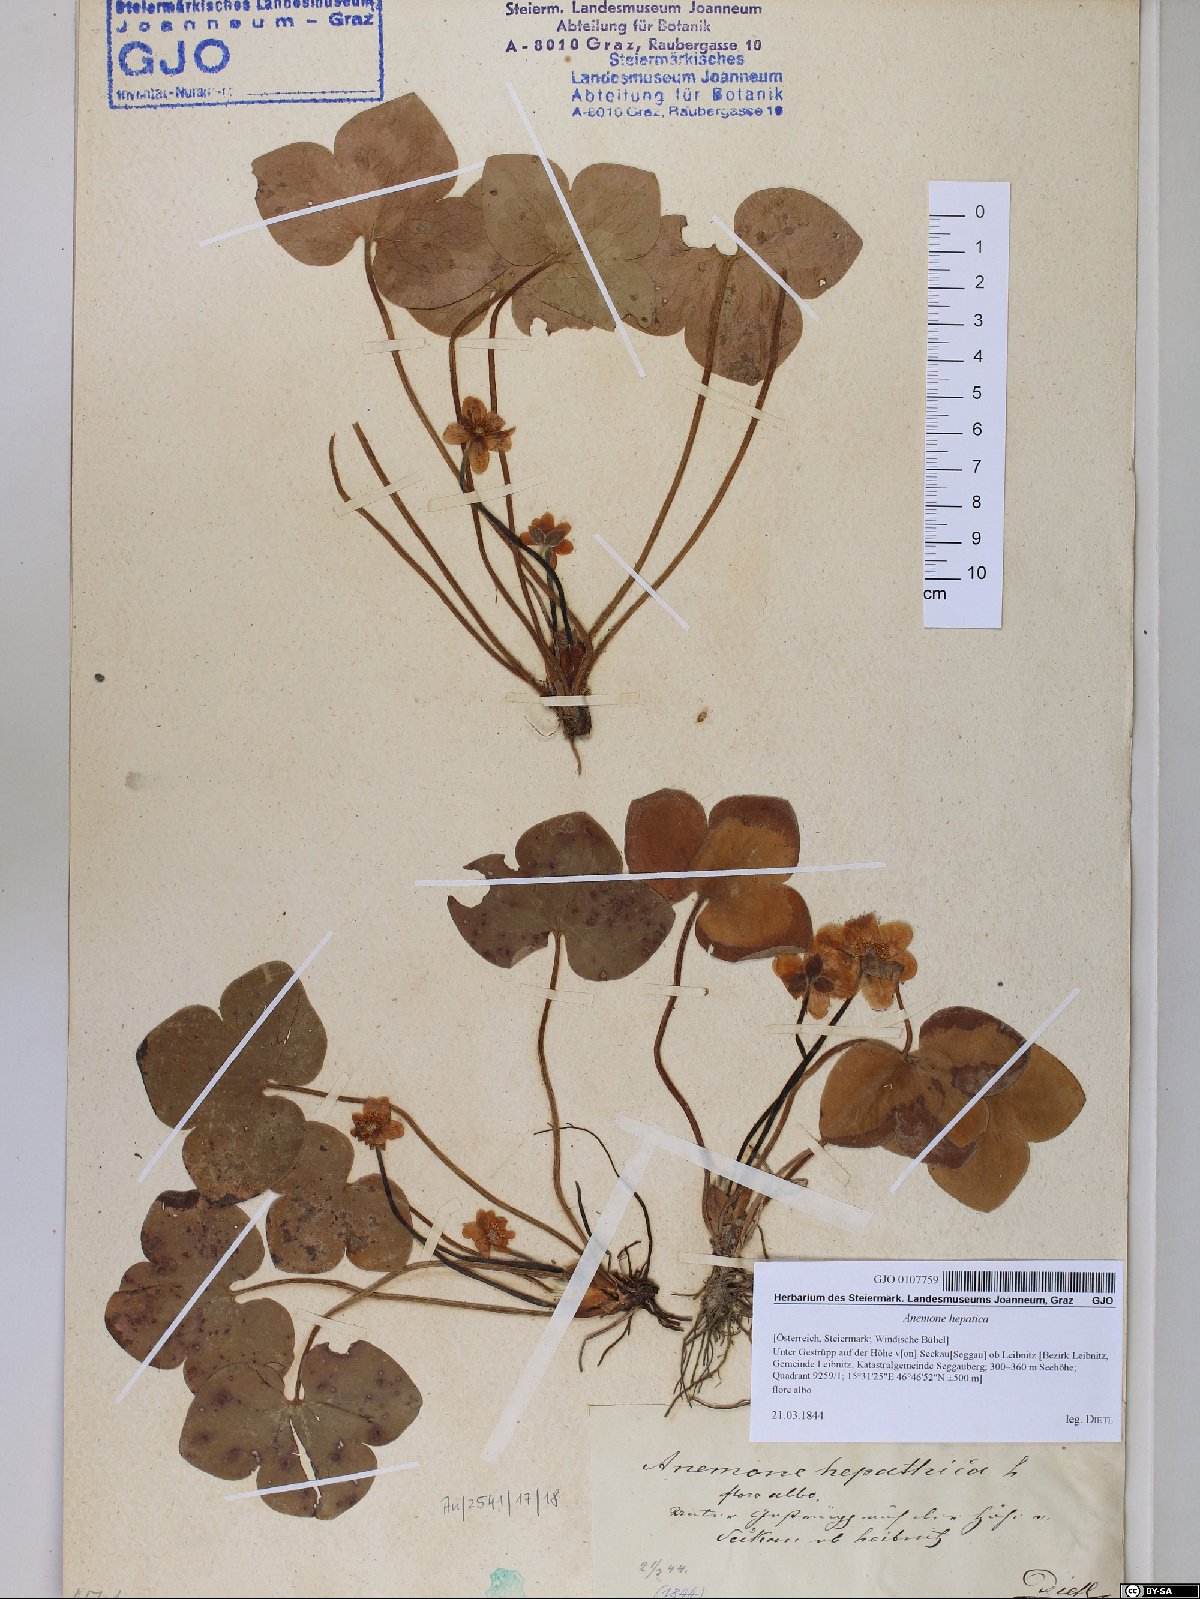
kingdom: Plantae
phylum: Tracheophyta
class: Magnoliopsida
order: Ranunculales
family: Ranunculaceae
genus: Hepatica
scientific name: Hepatica nobilis
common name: Liverleaf
